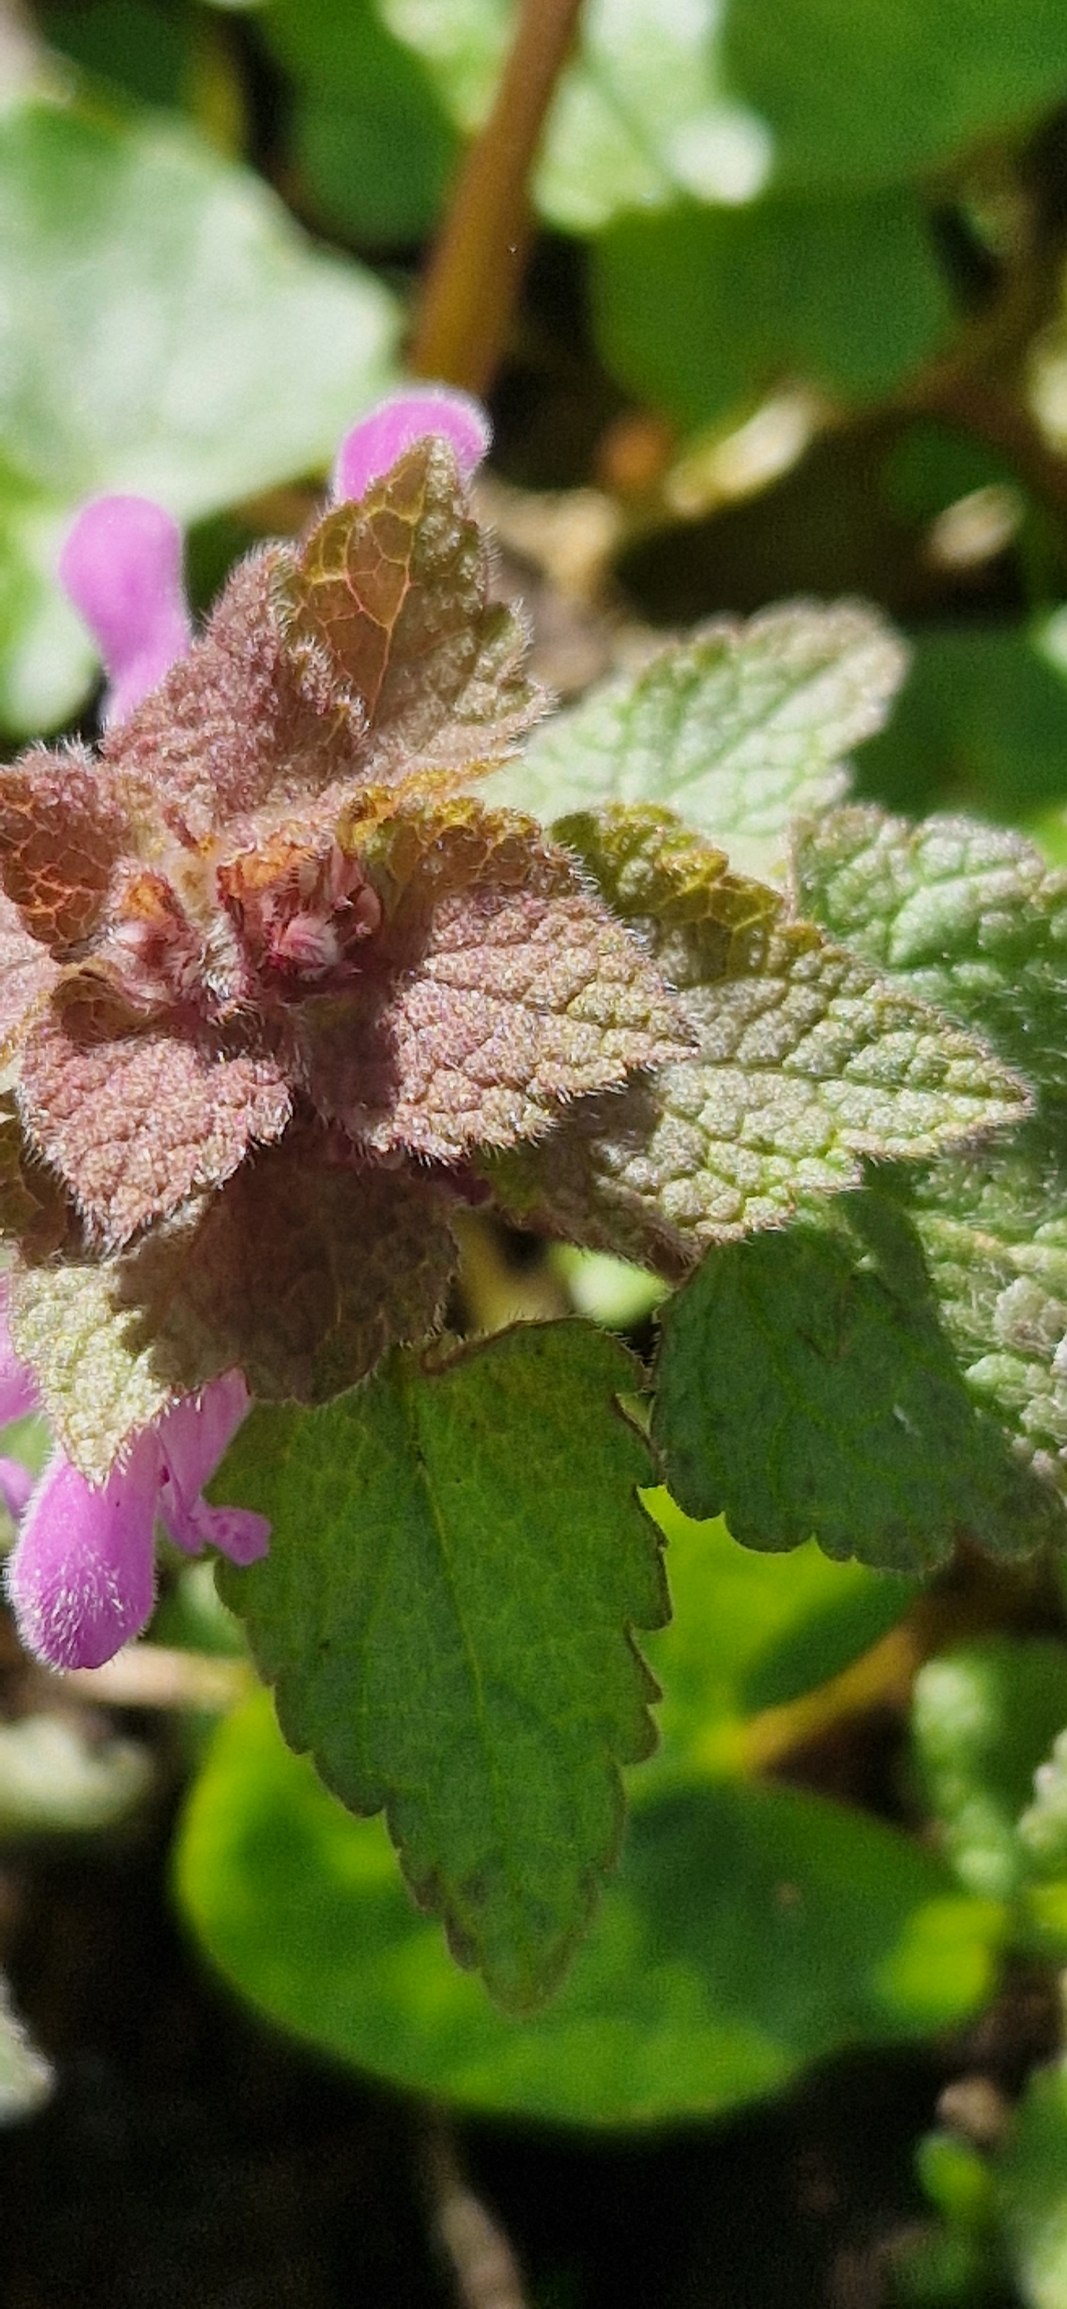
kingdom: Plantae
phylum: Tracheophyta
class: Magnoliopsida
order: Lamiales
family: Lamiaceae
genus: Lamium
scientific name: Lamium purpureum
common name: Rød tvetand
